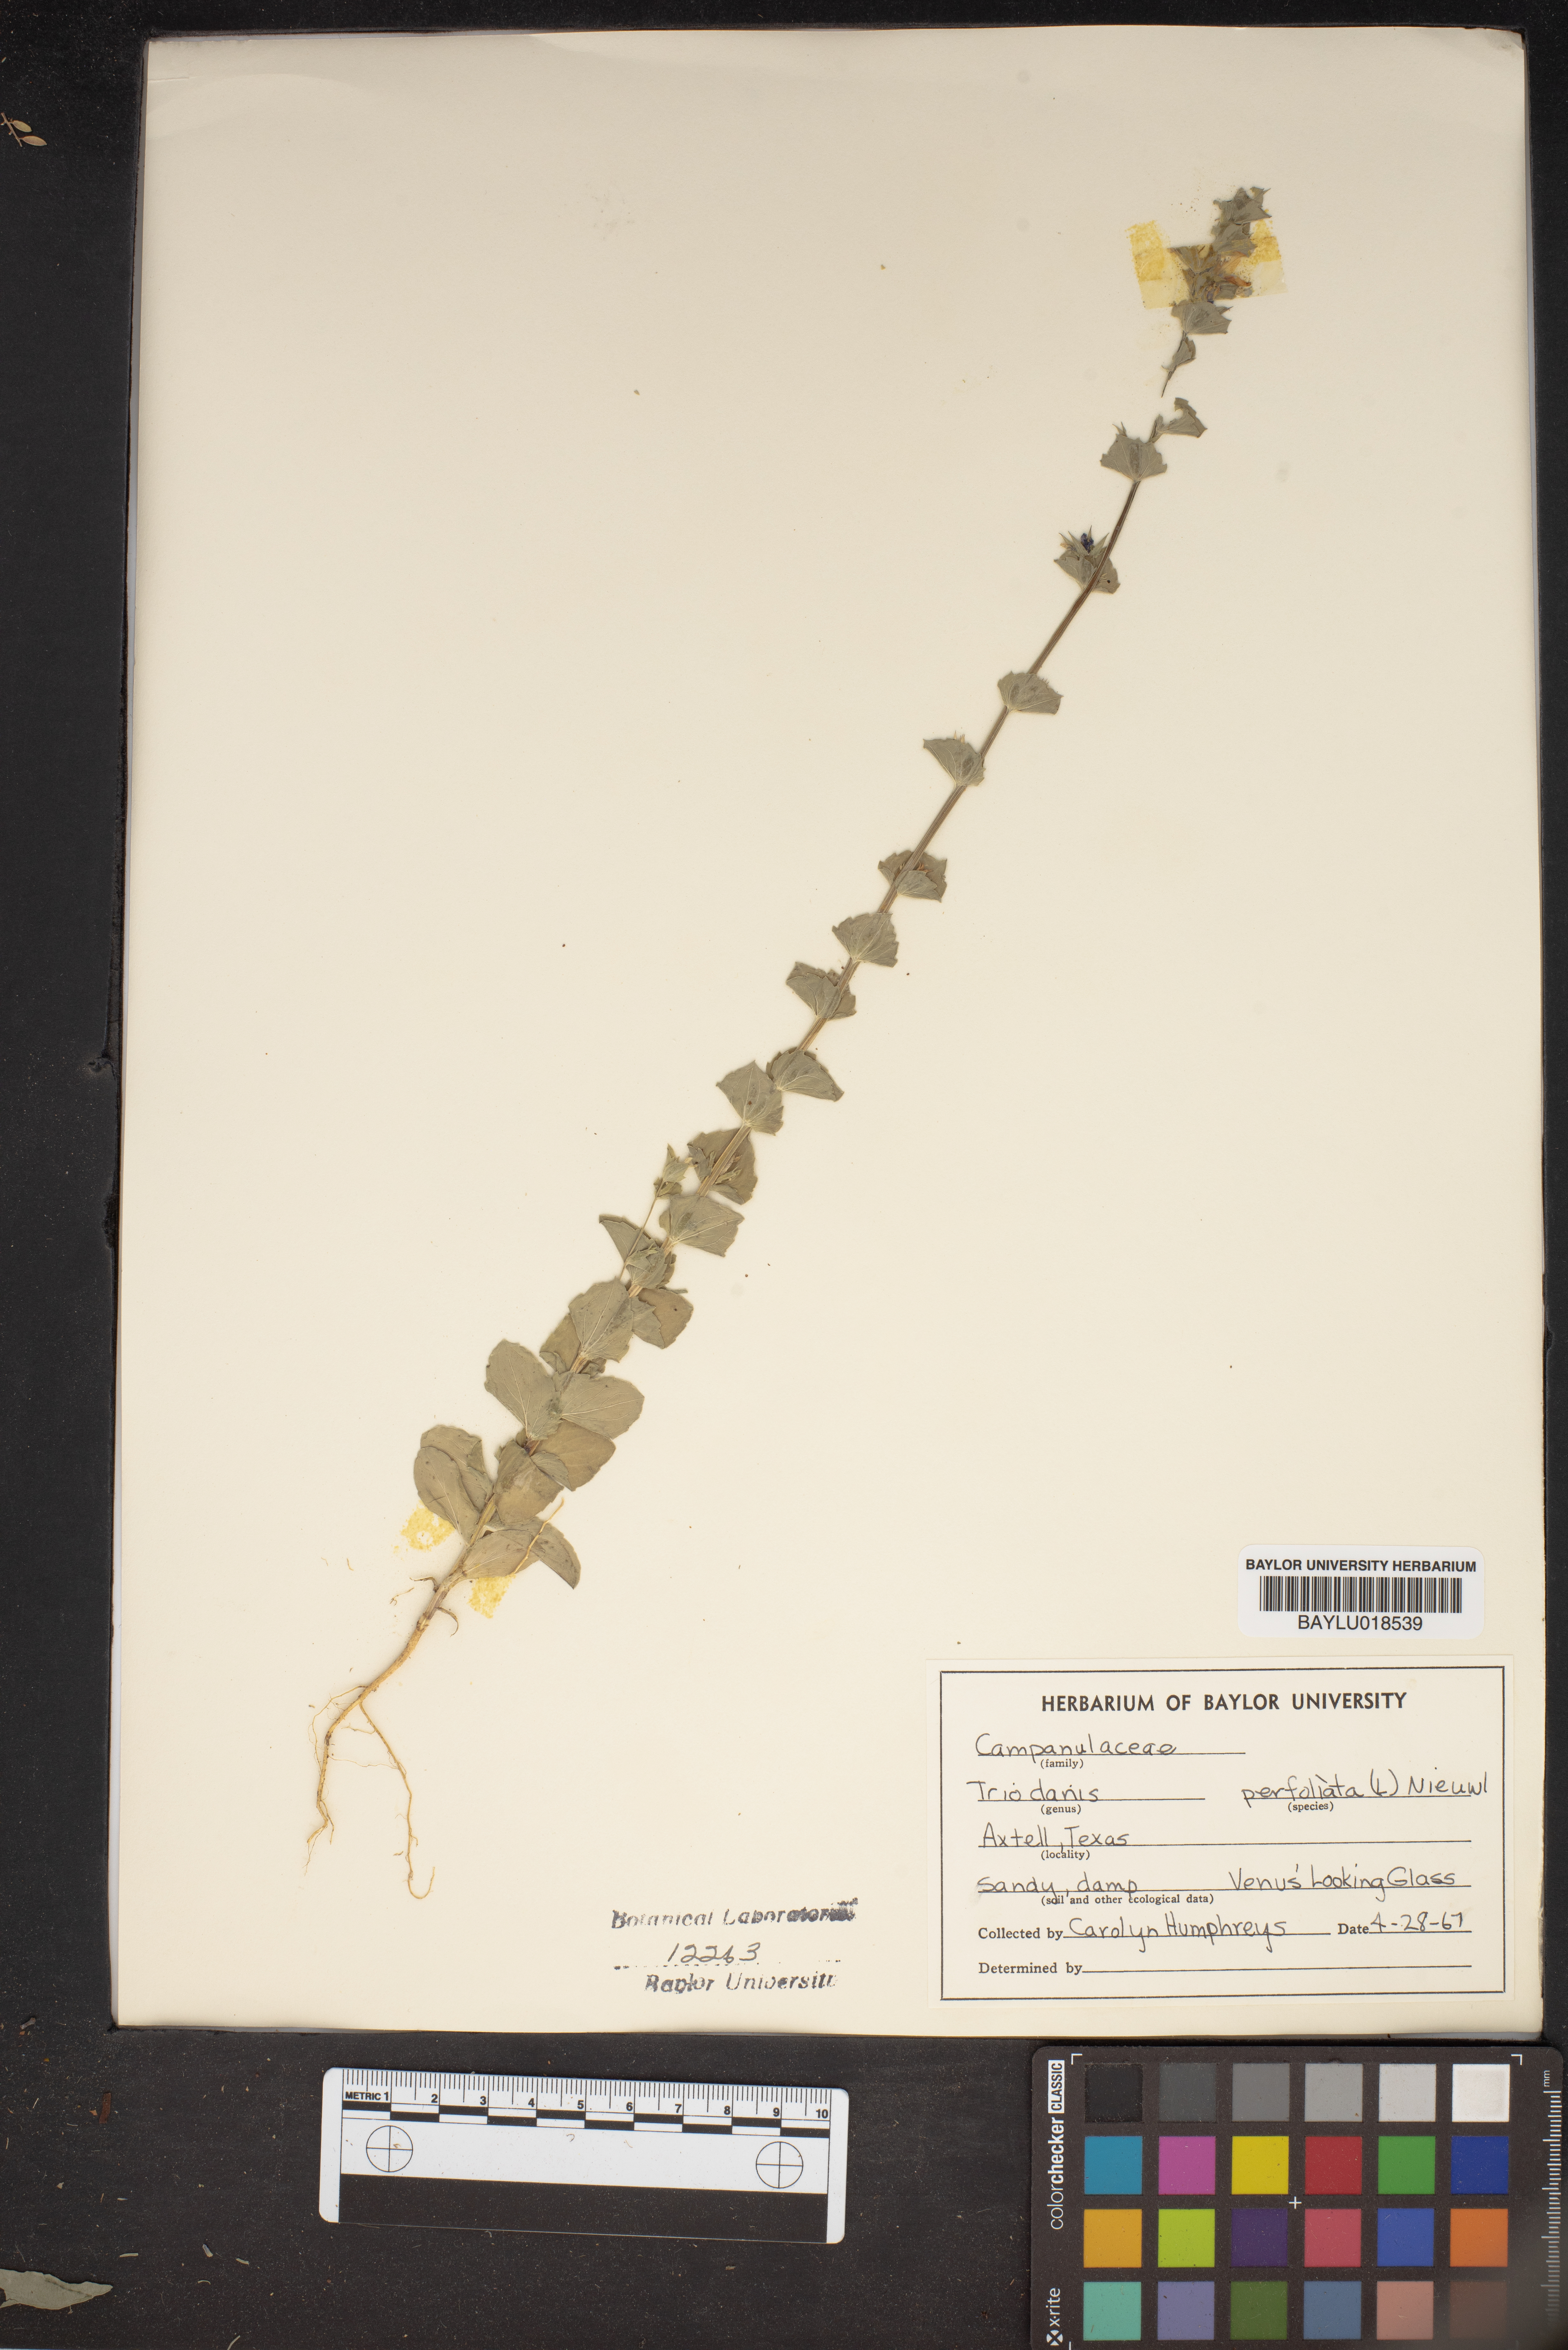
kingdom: Plantae
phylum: Tracheophyta
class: Magnoliopsida
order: Asterales
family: Campanulaceae
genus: Triodanis
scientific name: Triodanis perfoliata
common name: Clasping venus' looking-glass
